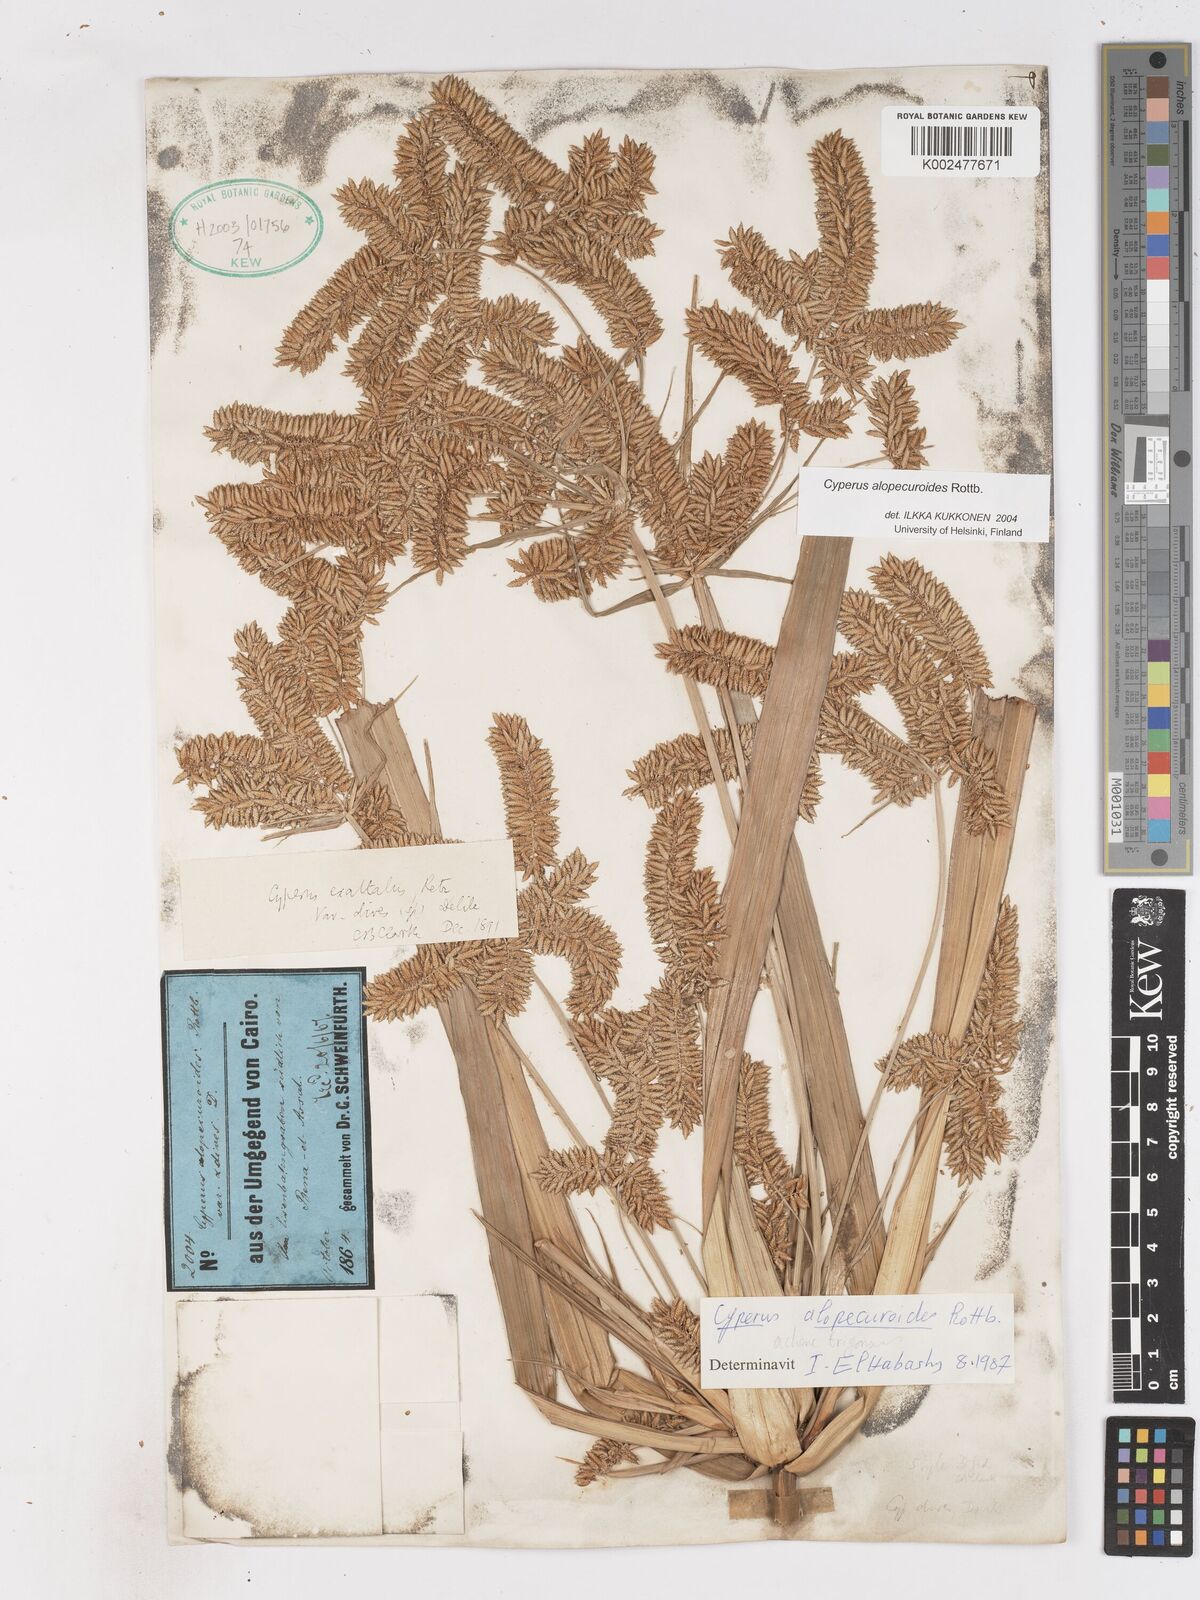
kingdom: Plantae
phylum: Tracheophyta
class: Liliopsida
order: Poales
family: Cyperaceae
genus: Cyperus
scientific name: Cyperus alopecuroides
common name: Foxtail flatsedge
